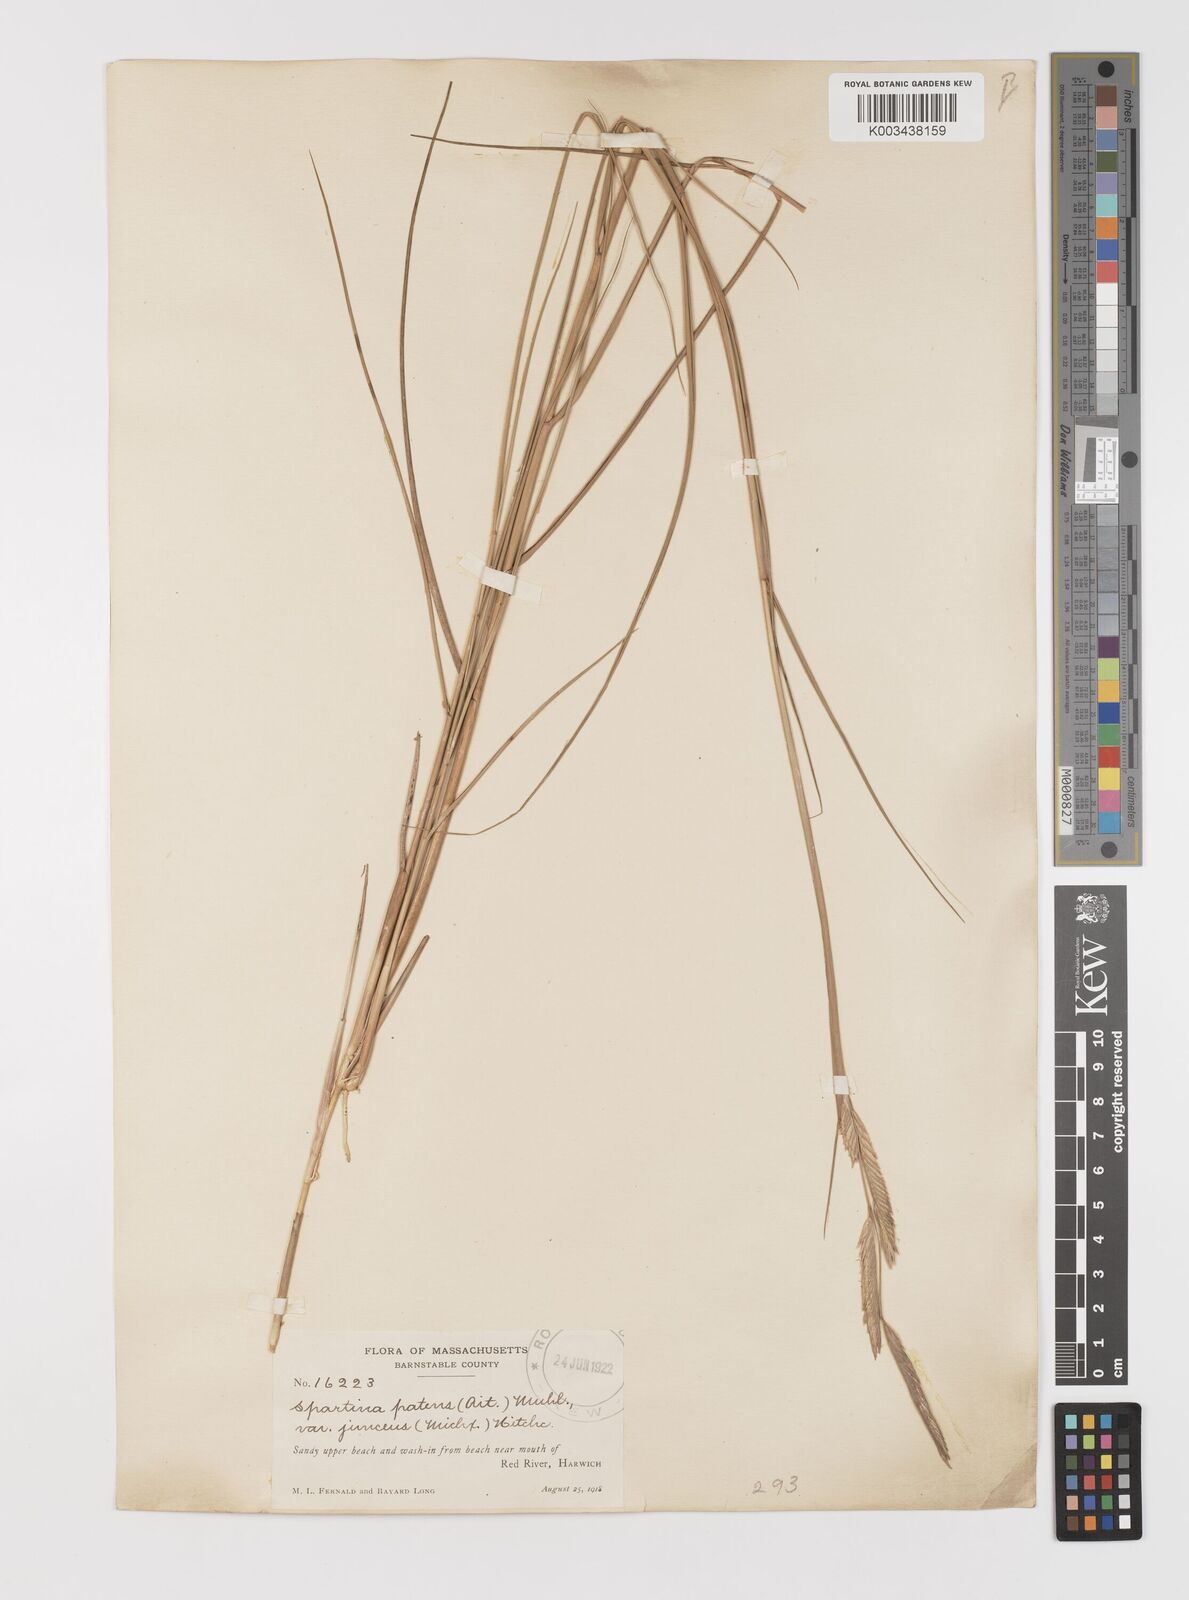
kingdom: Plantae
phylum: Tracheophyta
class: Liliopsida
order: Poales
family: Poaceae
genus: Sporobolus
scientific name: Sporobolus pumilus
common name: Highwater grass
